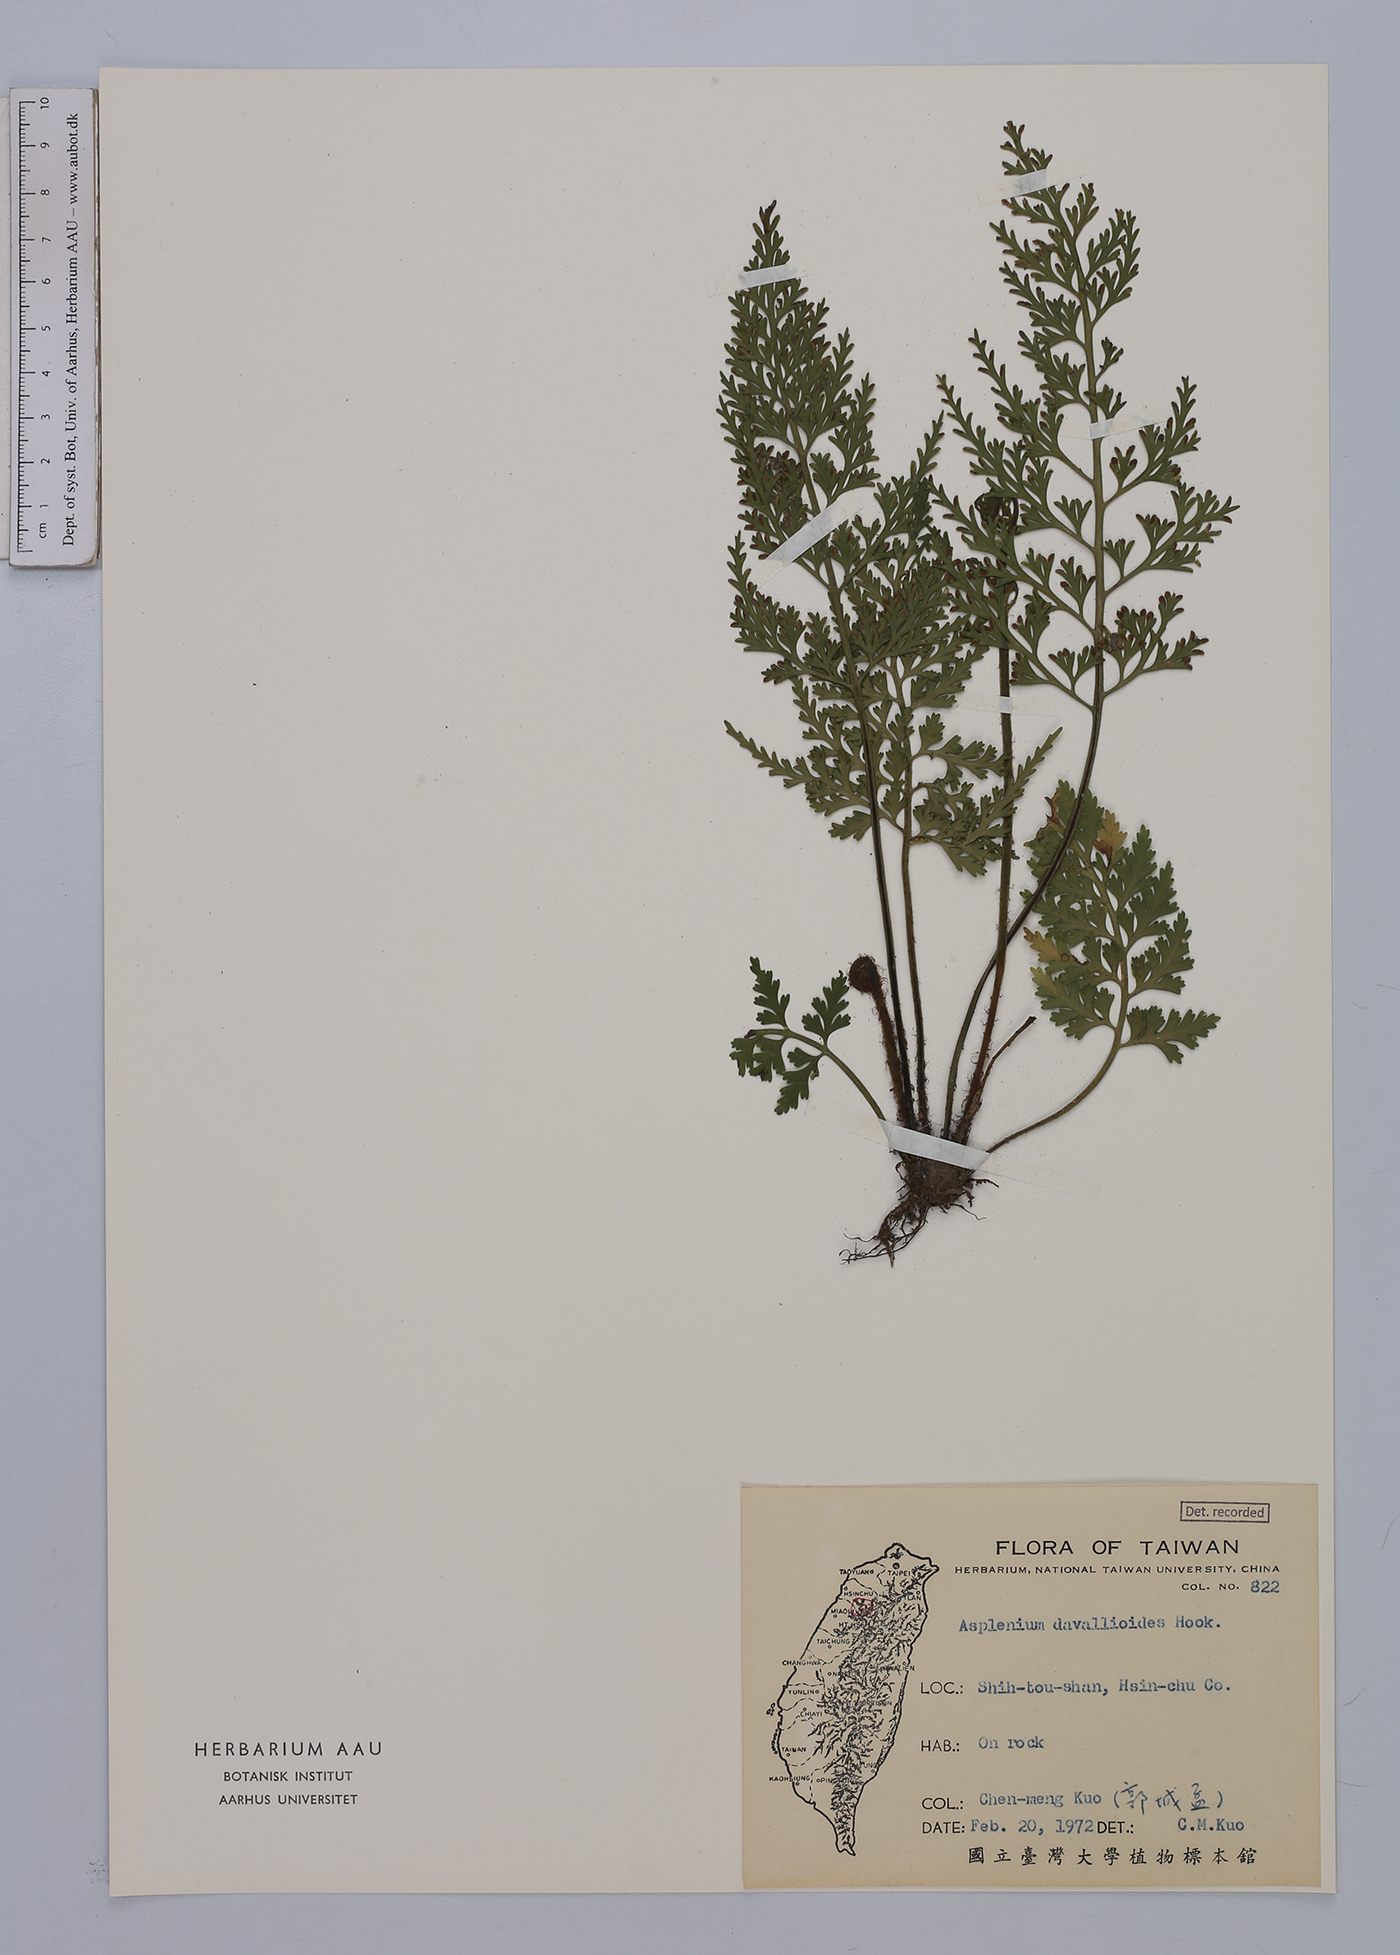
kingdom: Plantae
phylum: Tracheophyta
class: Polypodiopsida
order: Polypodiales
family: Aspleniaceae
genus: Asplenium
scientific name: Asplenium ritoense
